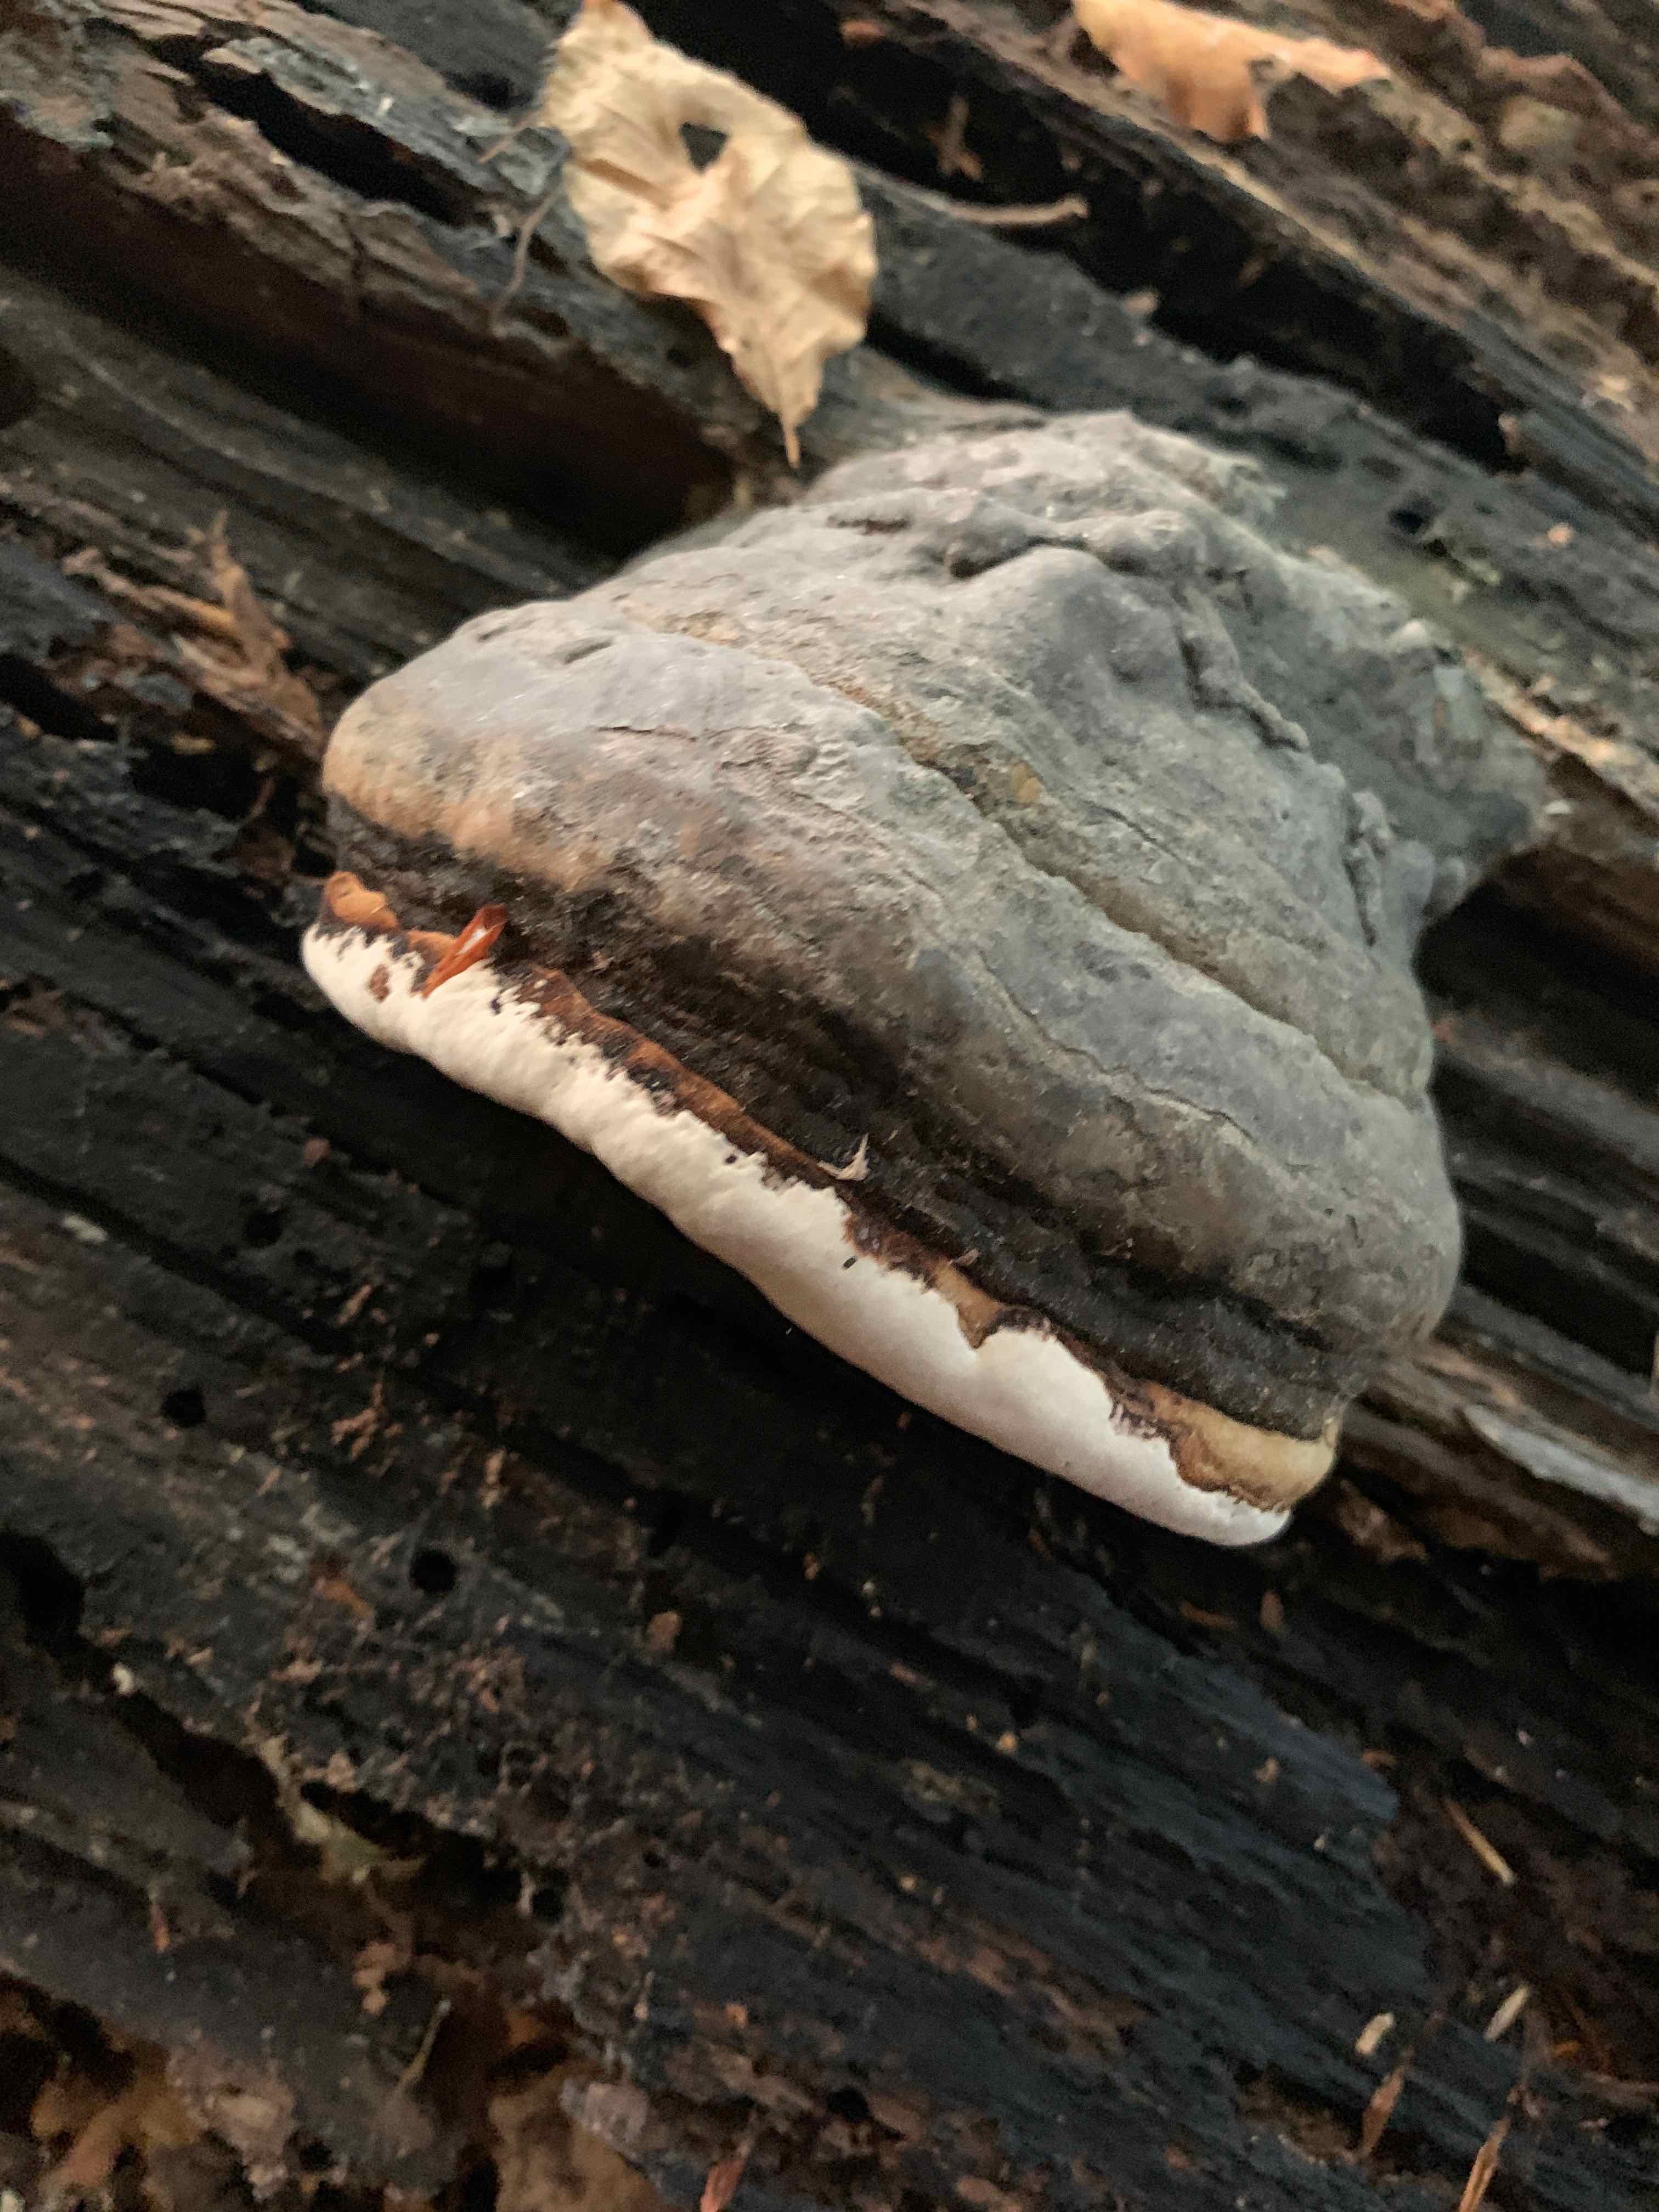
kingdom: Fungi
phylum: Basidiomycota
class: Agaricomycetes
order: Polyporales
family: Polyporaceae
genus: Fomes
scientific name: Fomes fomentarius
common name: tøndersvamp
